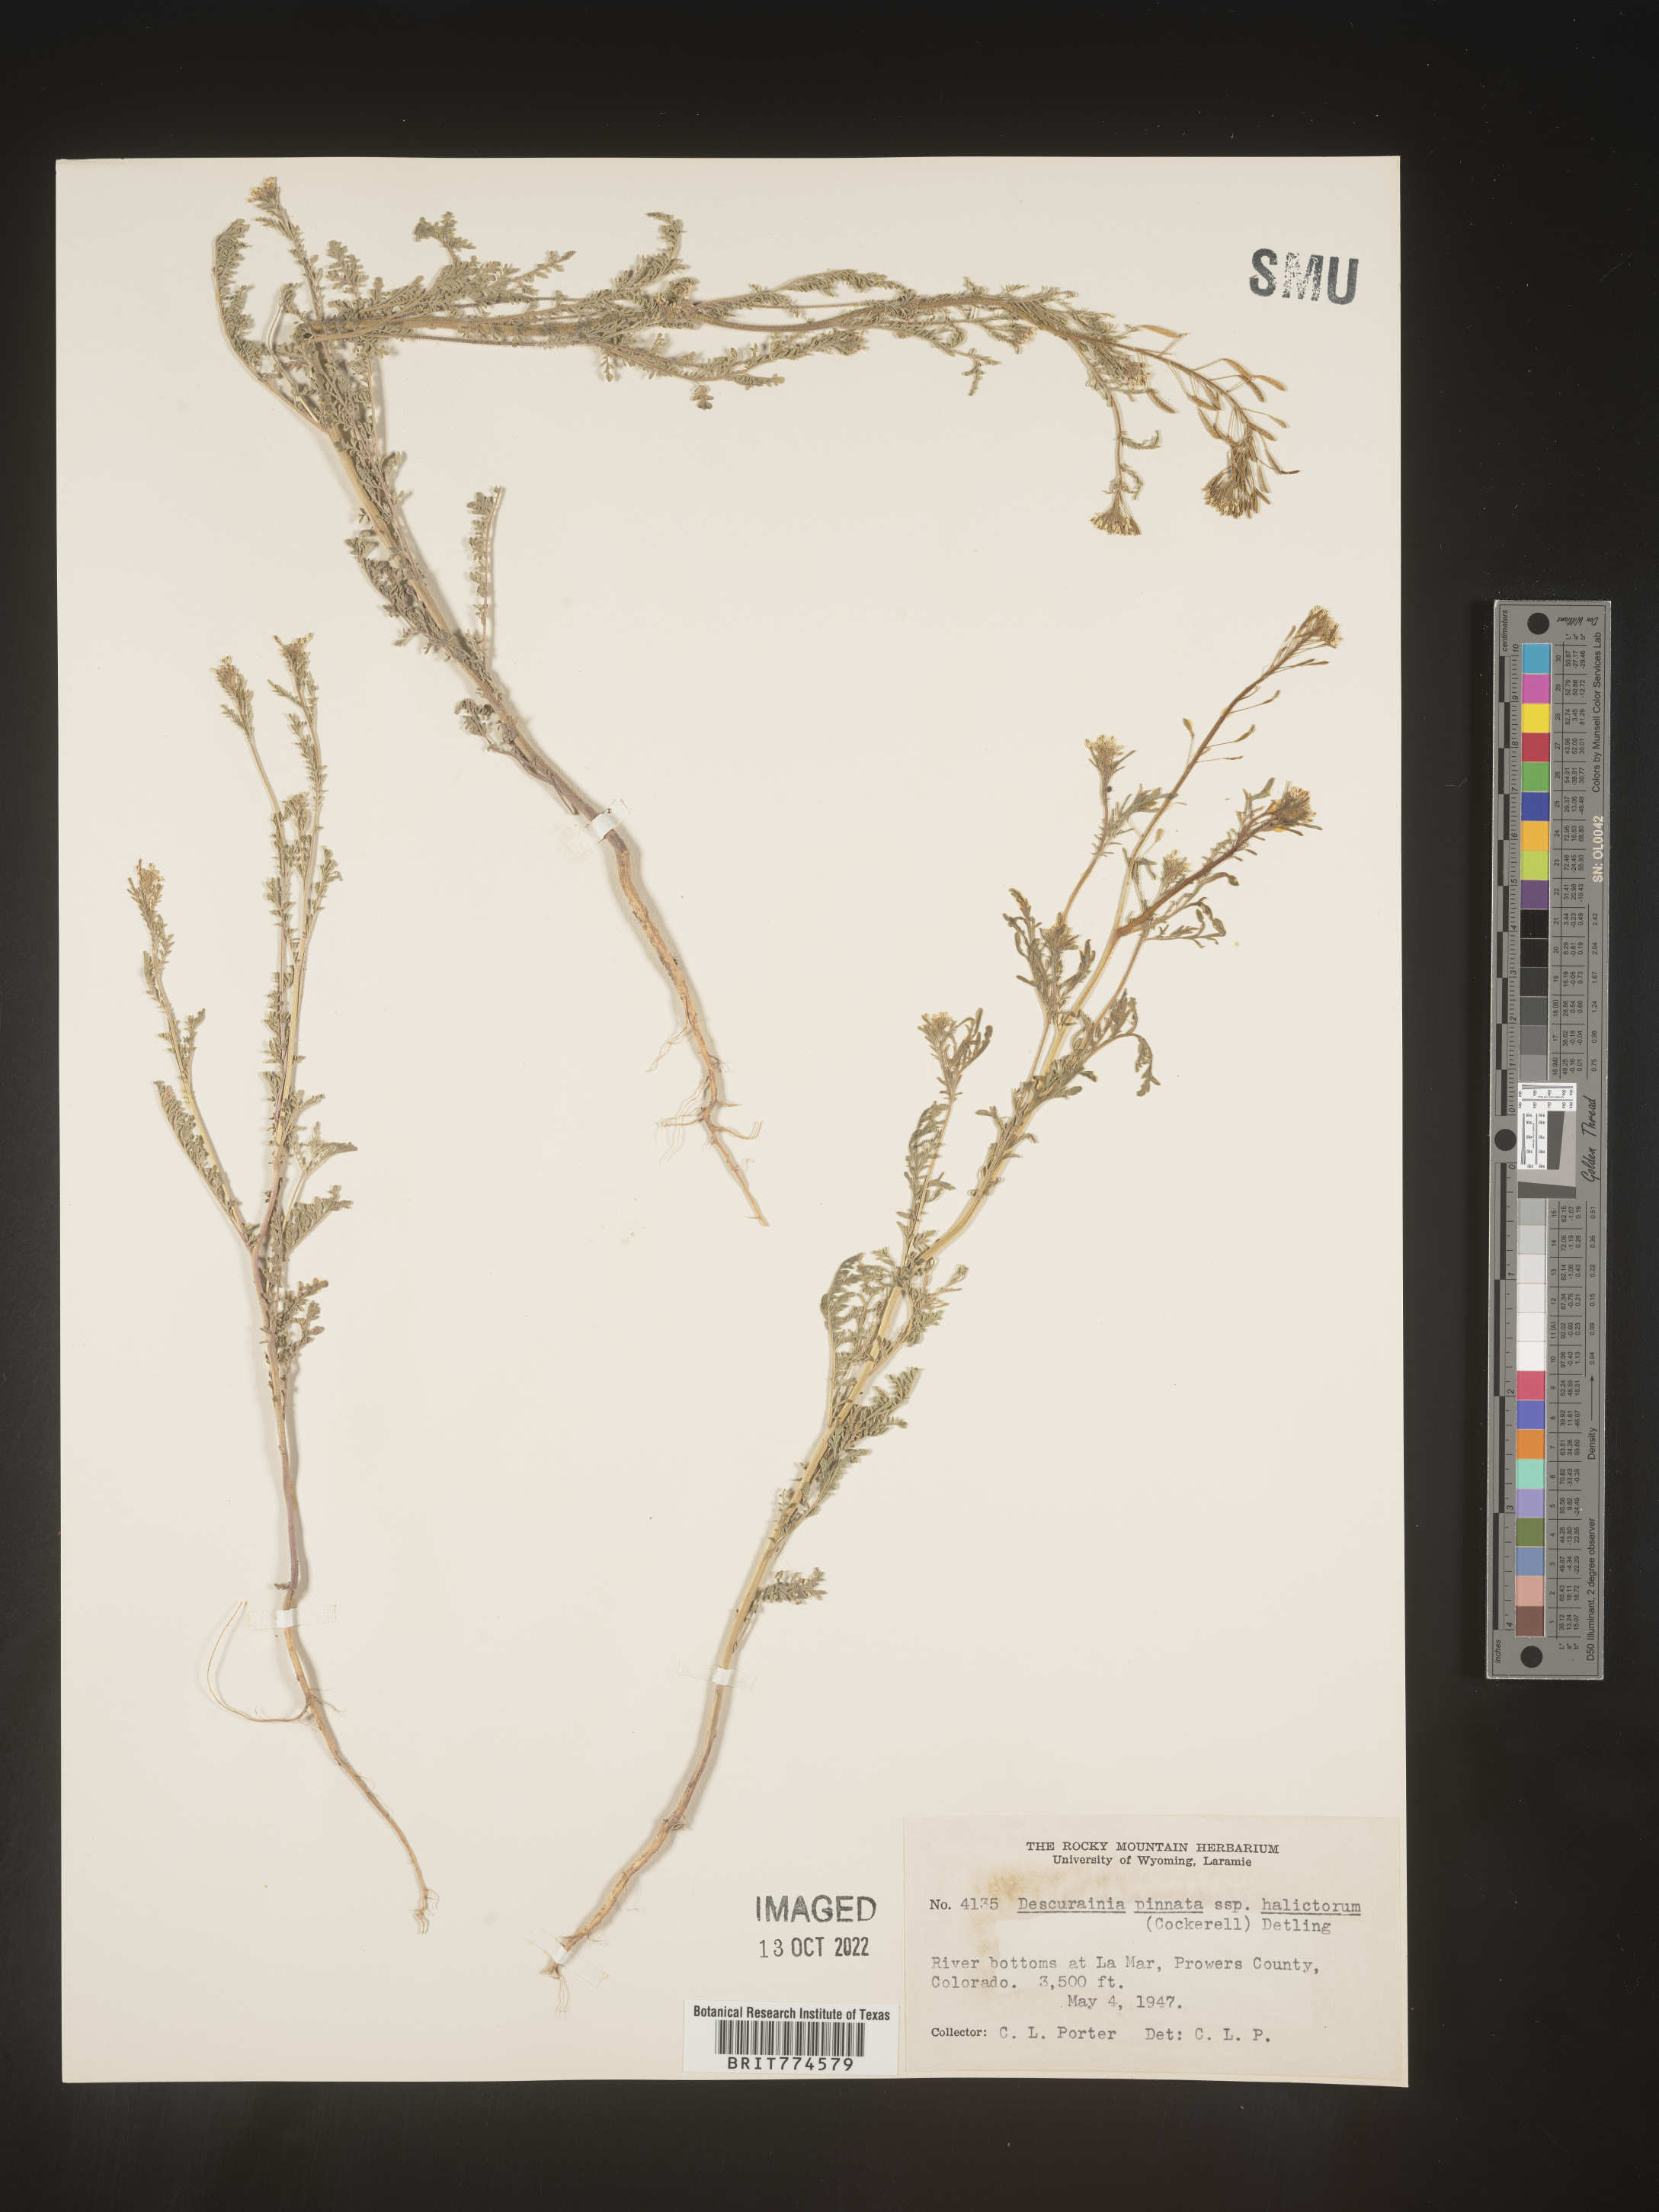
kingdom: Plantae
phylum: Tracheophyta
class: Magnoliopsida
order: Brassicales
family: Brassicaceae
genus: Descurainia
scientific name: Descurainia pinnata
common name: Western tansy mustard
